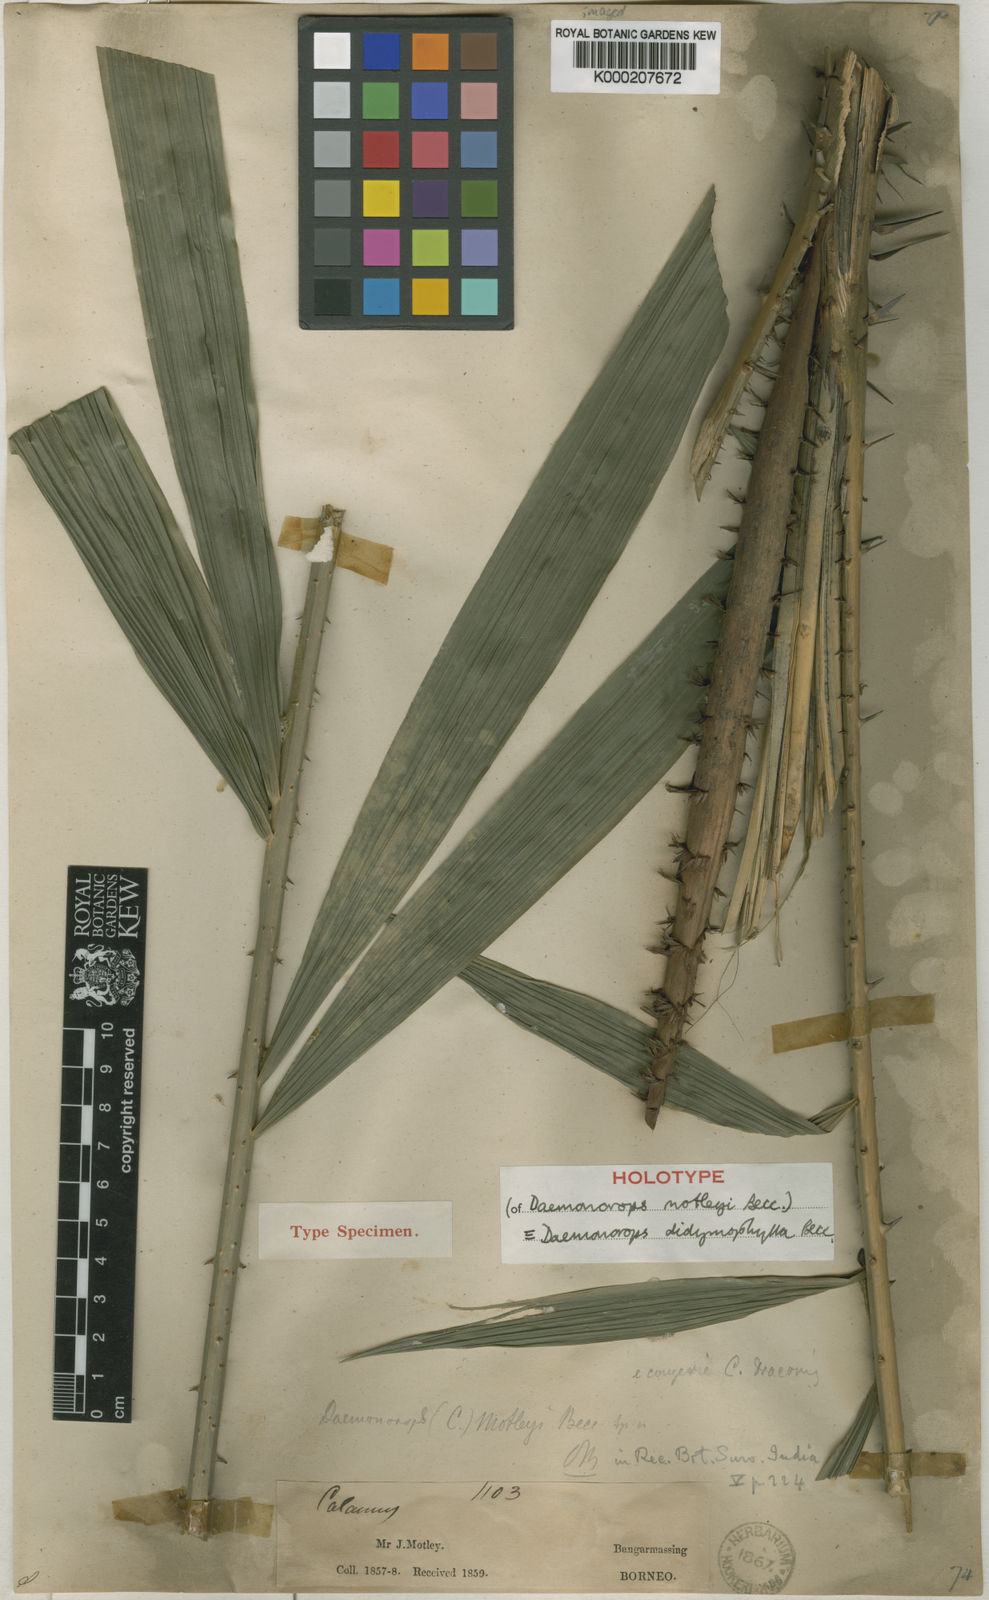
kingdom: Plantae
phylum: Tracheophyta
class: Liliopsida
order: Arecales
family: Arecaceae
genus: Calamus
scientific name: Calamus gracilipes
